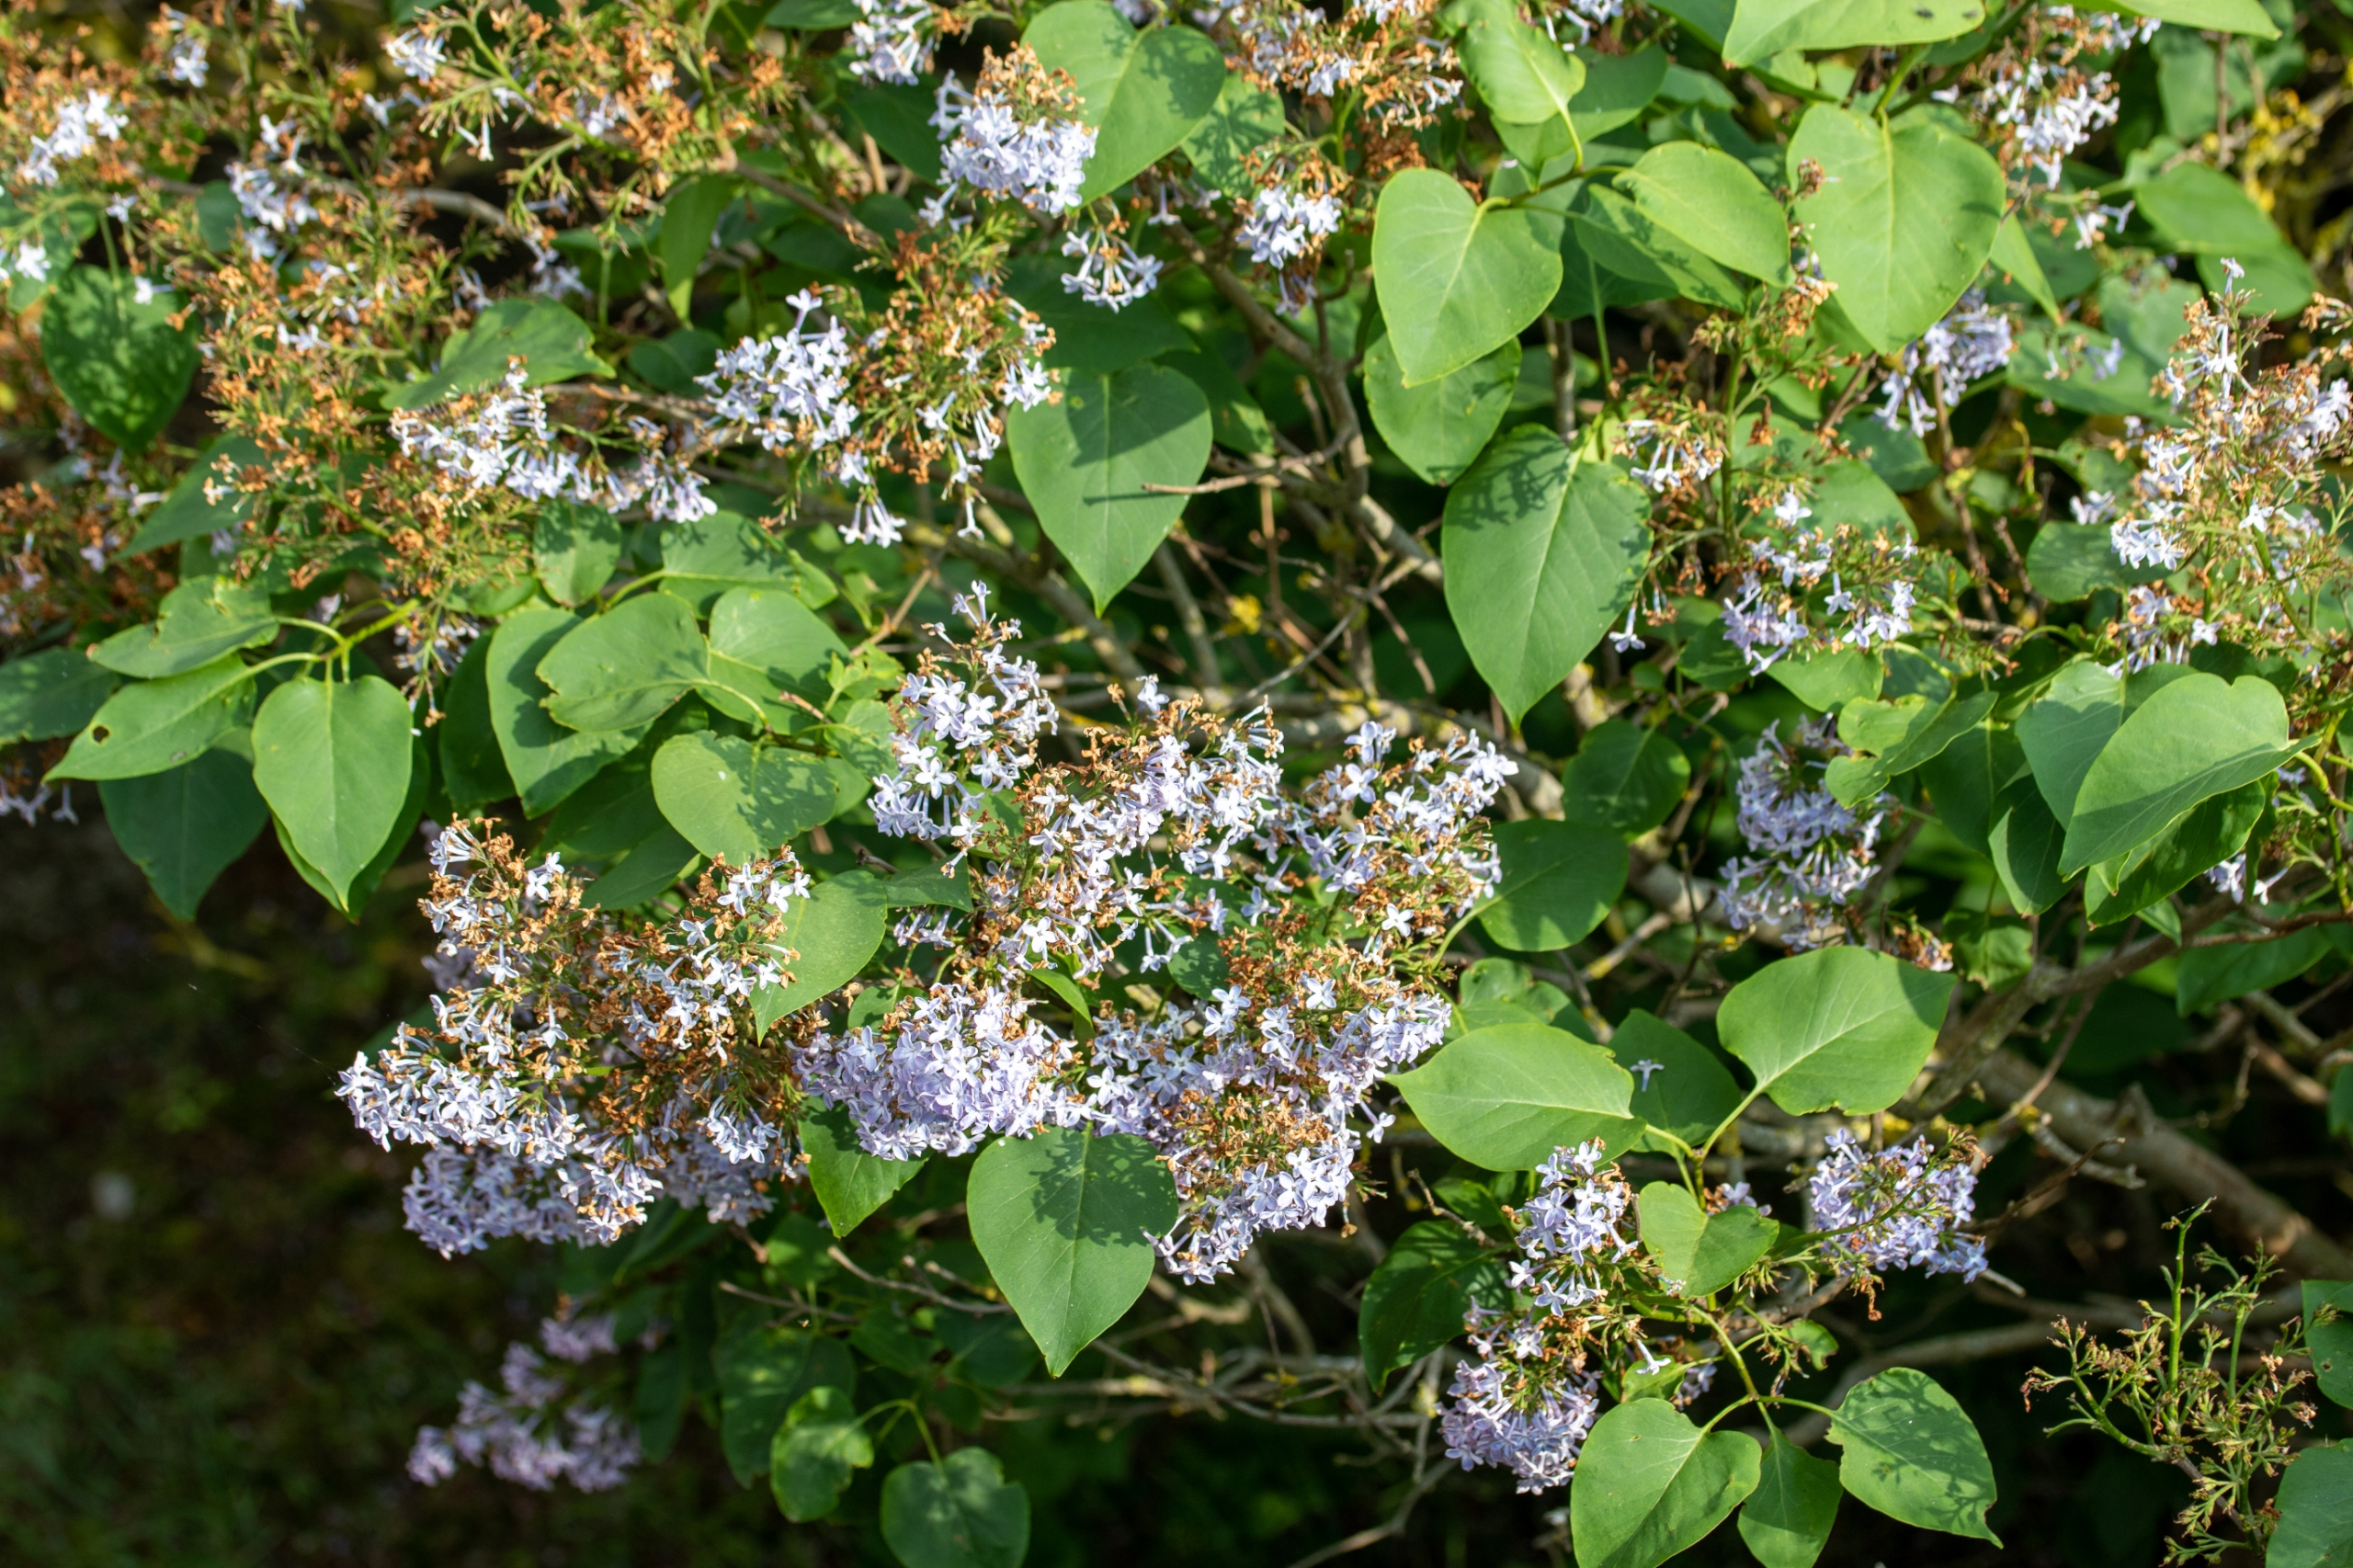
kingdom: Plantae
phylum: Tracheophyta
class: Magnoliopsida
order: Lamiales
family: Oleaceae
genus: Syringa
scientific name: Syringa vulgaris
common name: Syren
